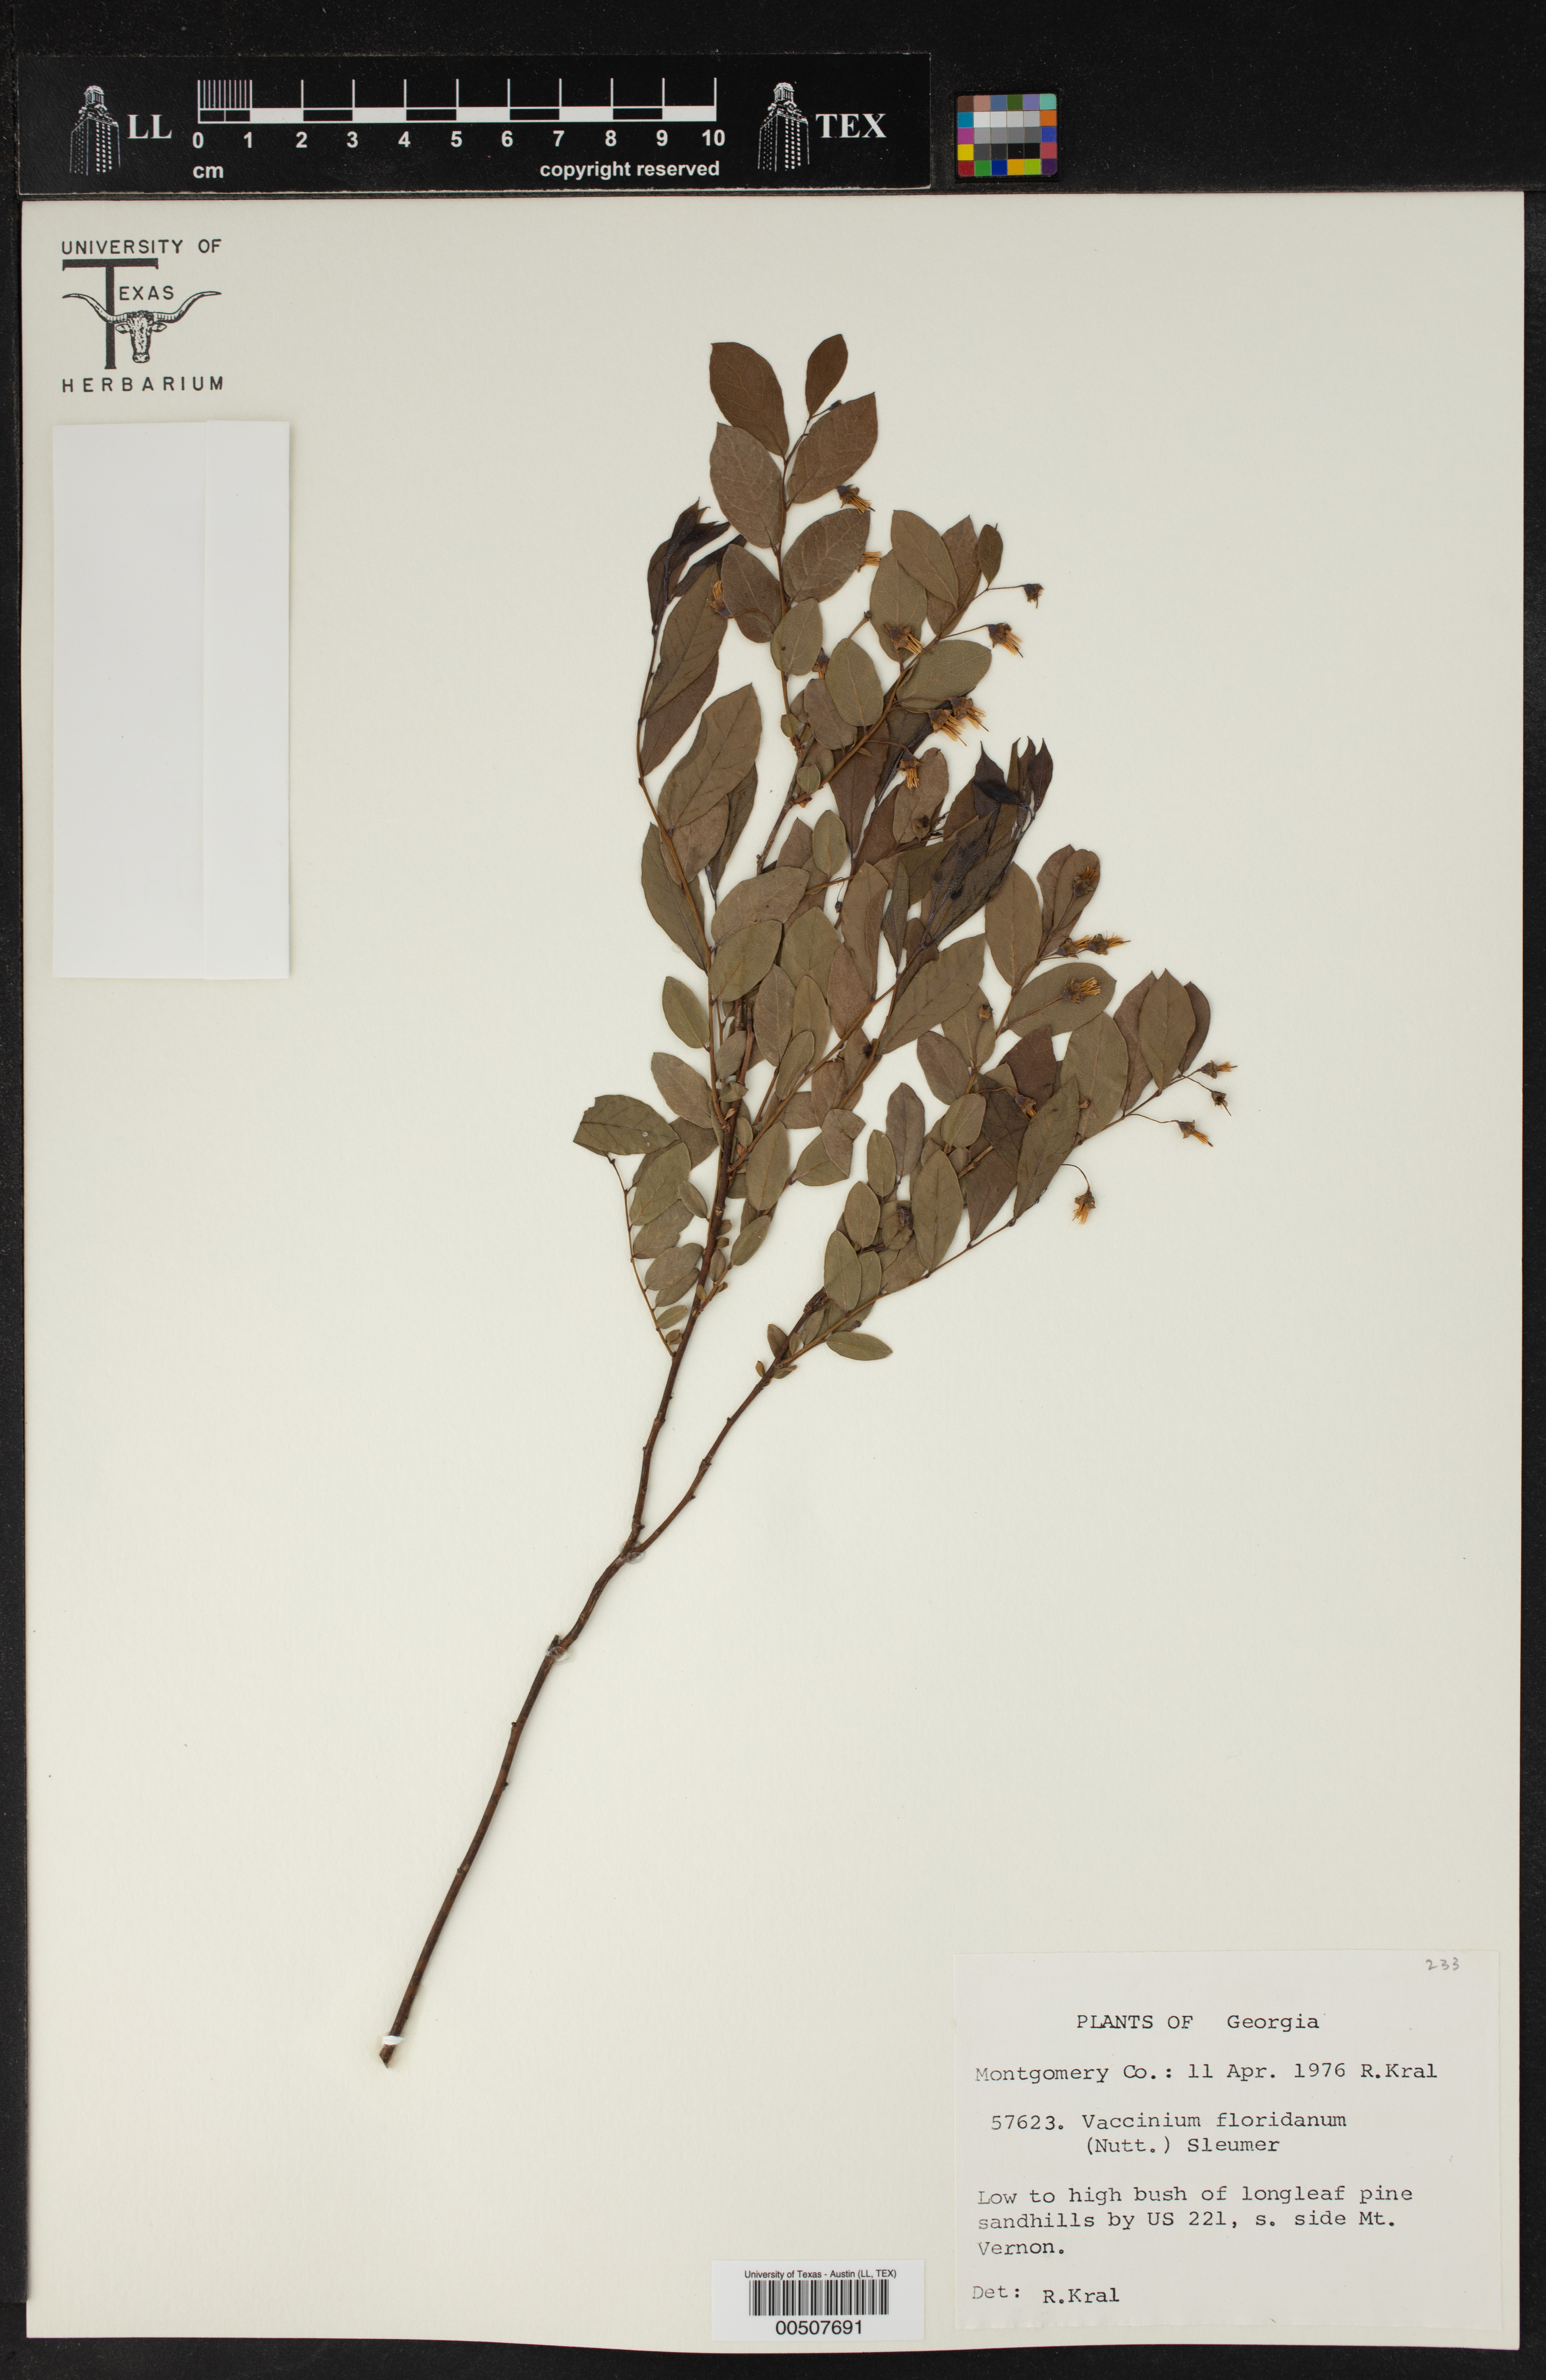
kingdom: Plantae
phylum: Tracheophyta
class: Magnoliopsida
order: Ericales
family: Ericaceae
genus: Vaccinium
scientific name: Vaccinium stamineum
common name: Deerberry
